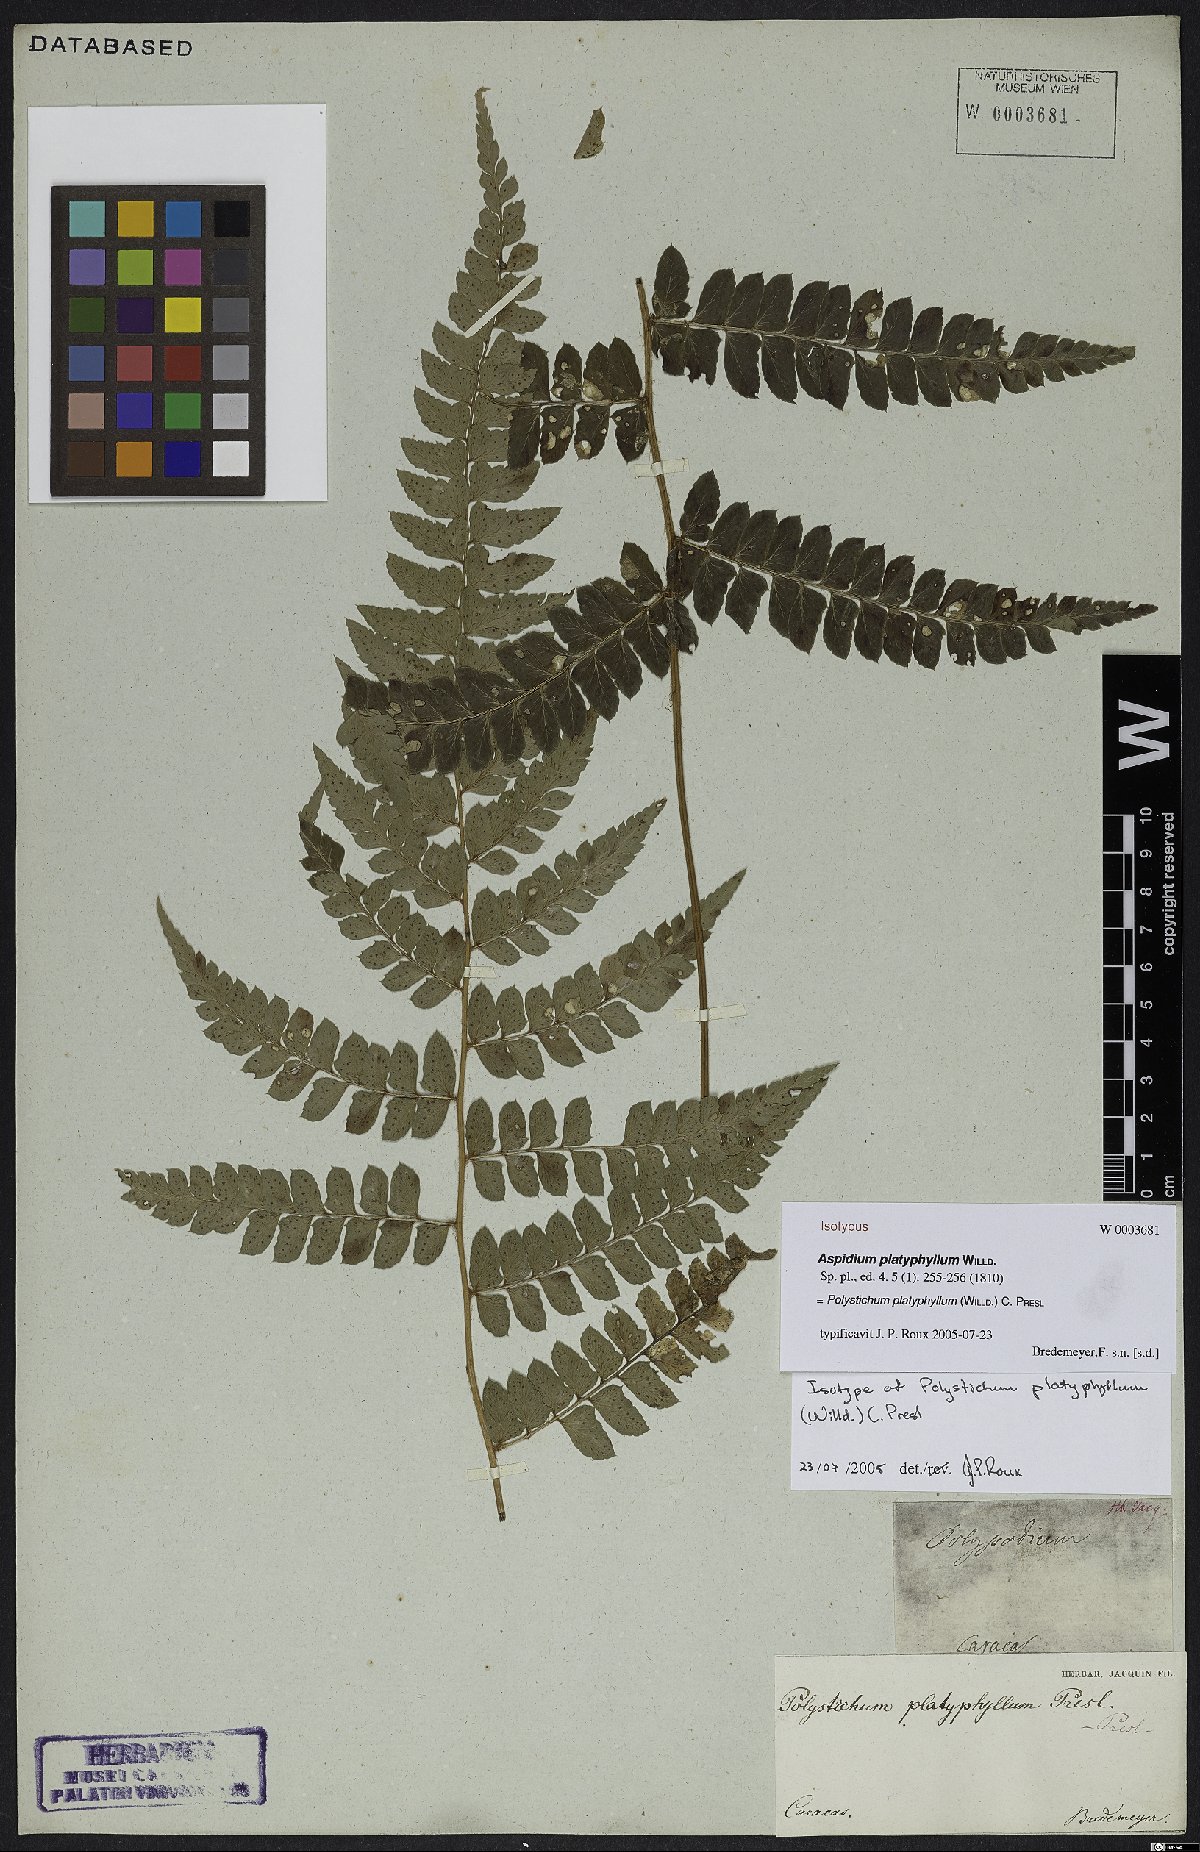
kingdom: Plantae
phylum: Tracheophyta
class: Polypodiopsida
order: Polypodiales
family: Dryopteridaceae
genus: Polystichum
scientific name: Polystichum platyphyllum
